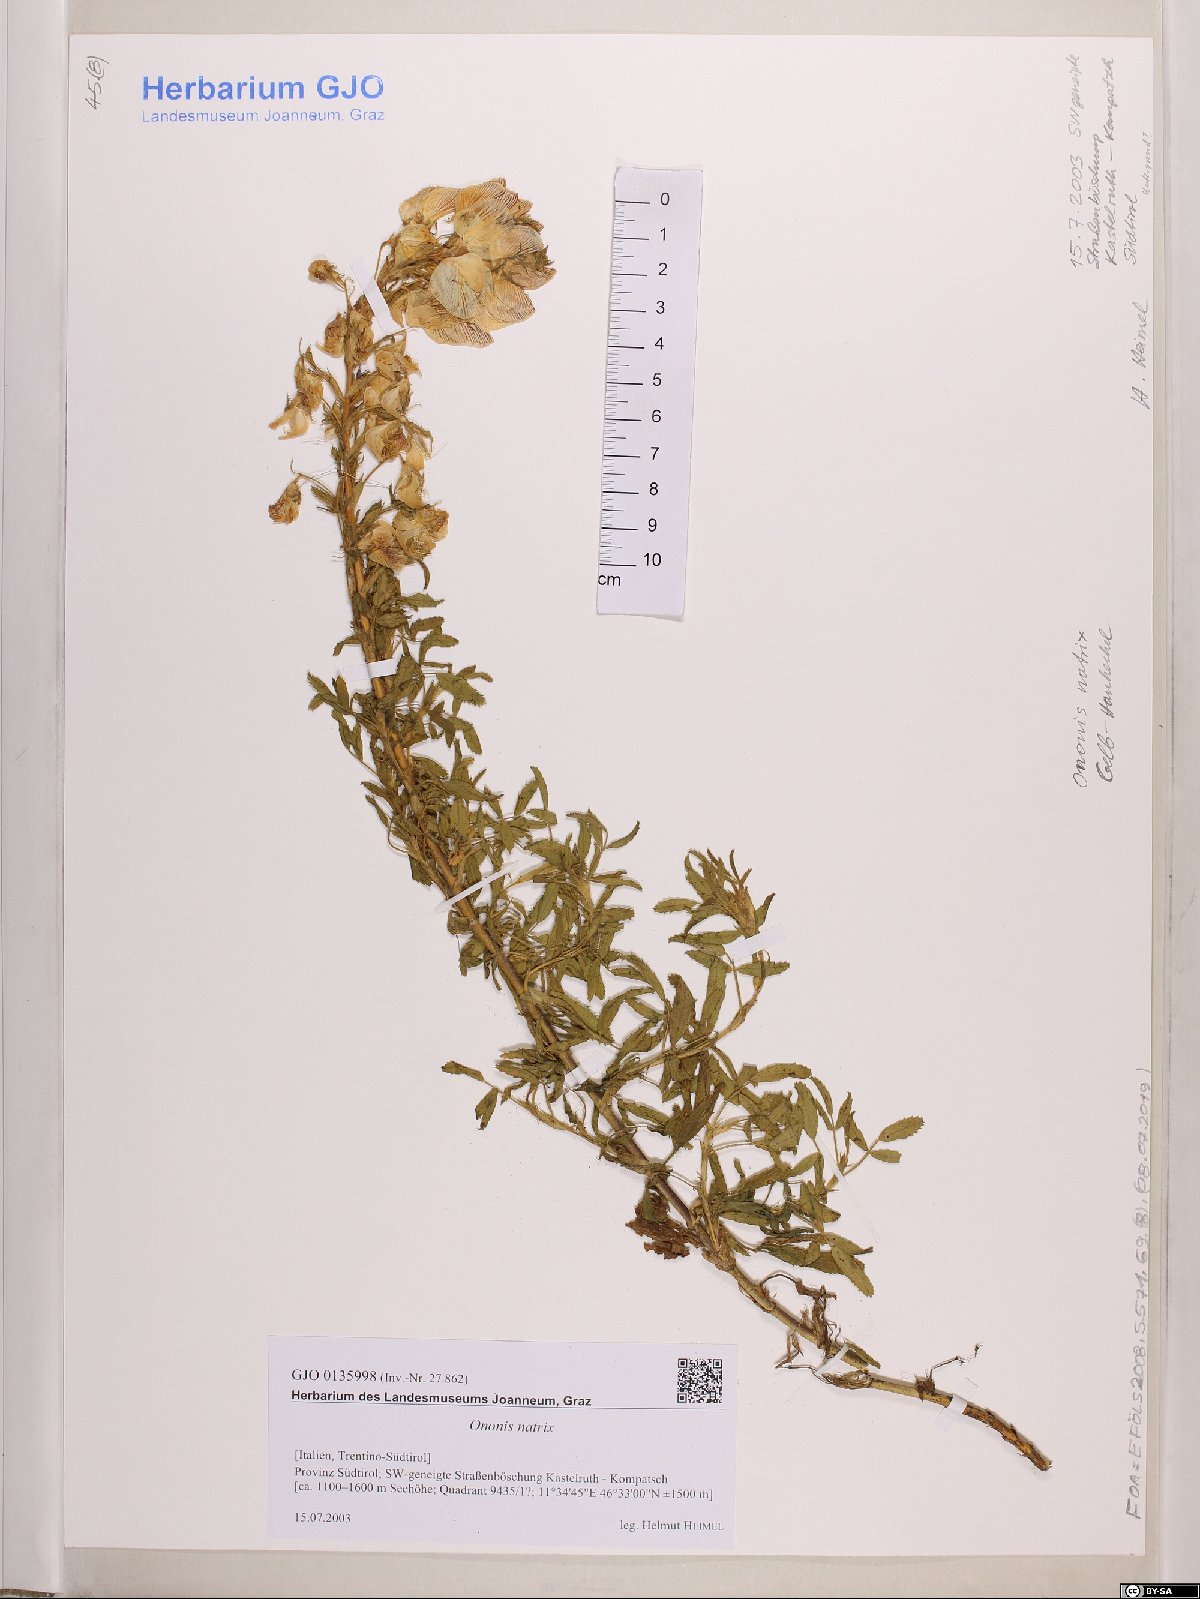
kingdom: Plantae
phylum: Tracheophyta
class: Magnoliopsida
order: Fabales
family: Fabaceae
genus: Ononis
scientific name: Ononis natrix
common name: Yellow restharrow
